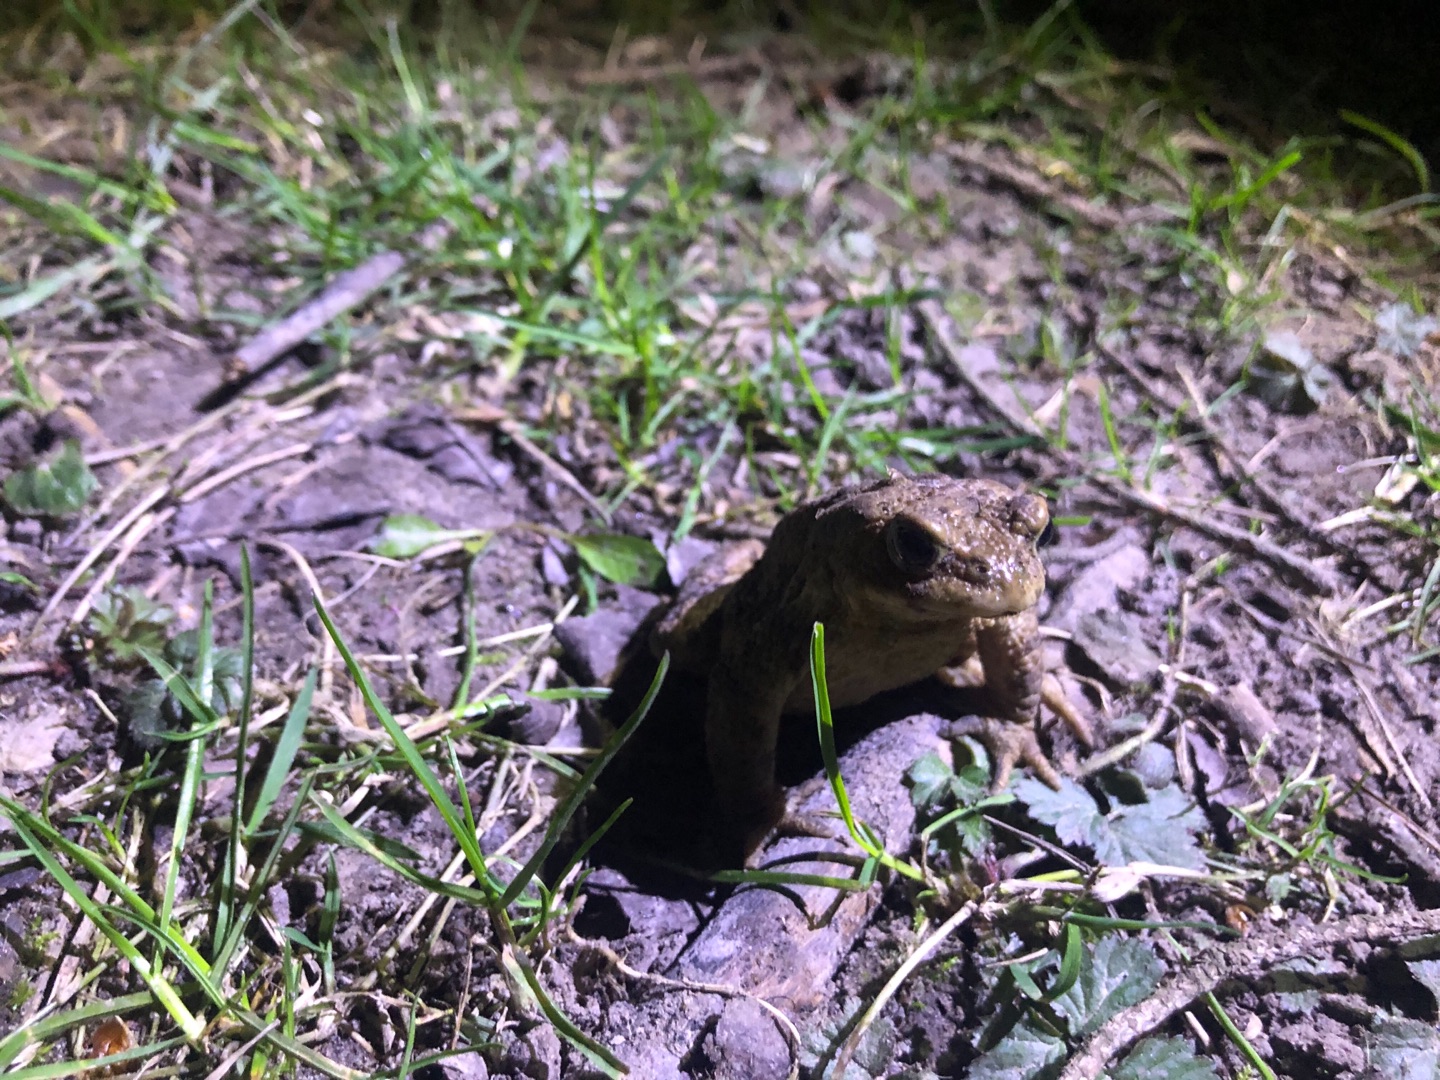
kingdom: Animalia
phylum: Chordata
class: Amphibia
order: Anura
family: Bufonidae
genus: Bufo
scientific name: Bufo bufo
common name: Skrubtudse
